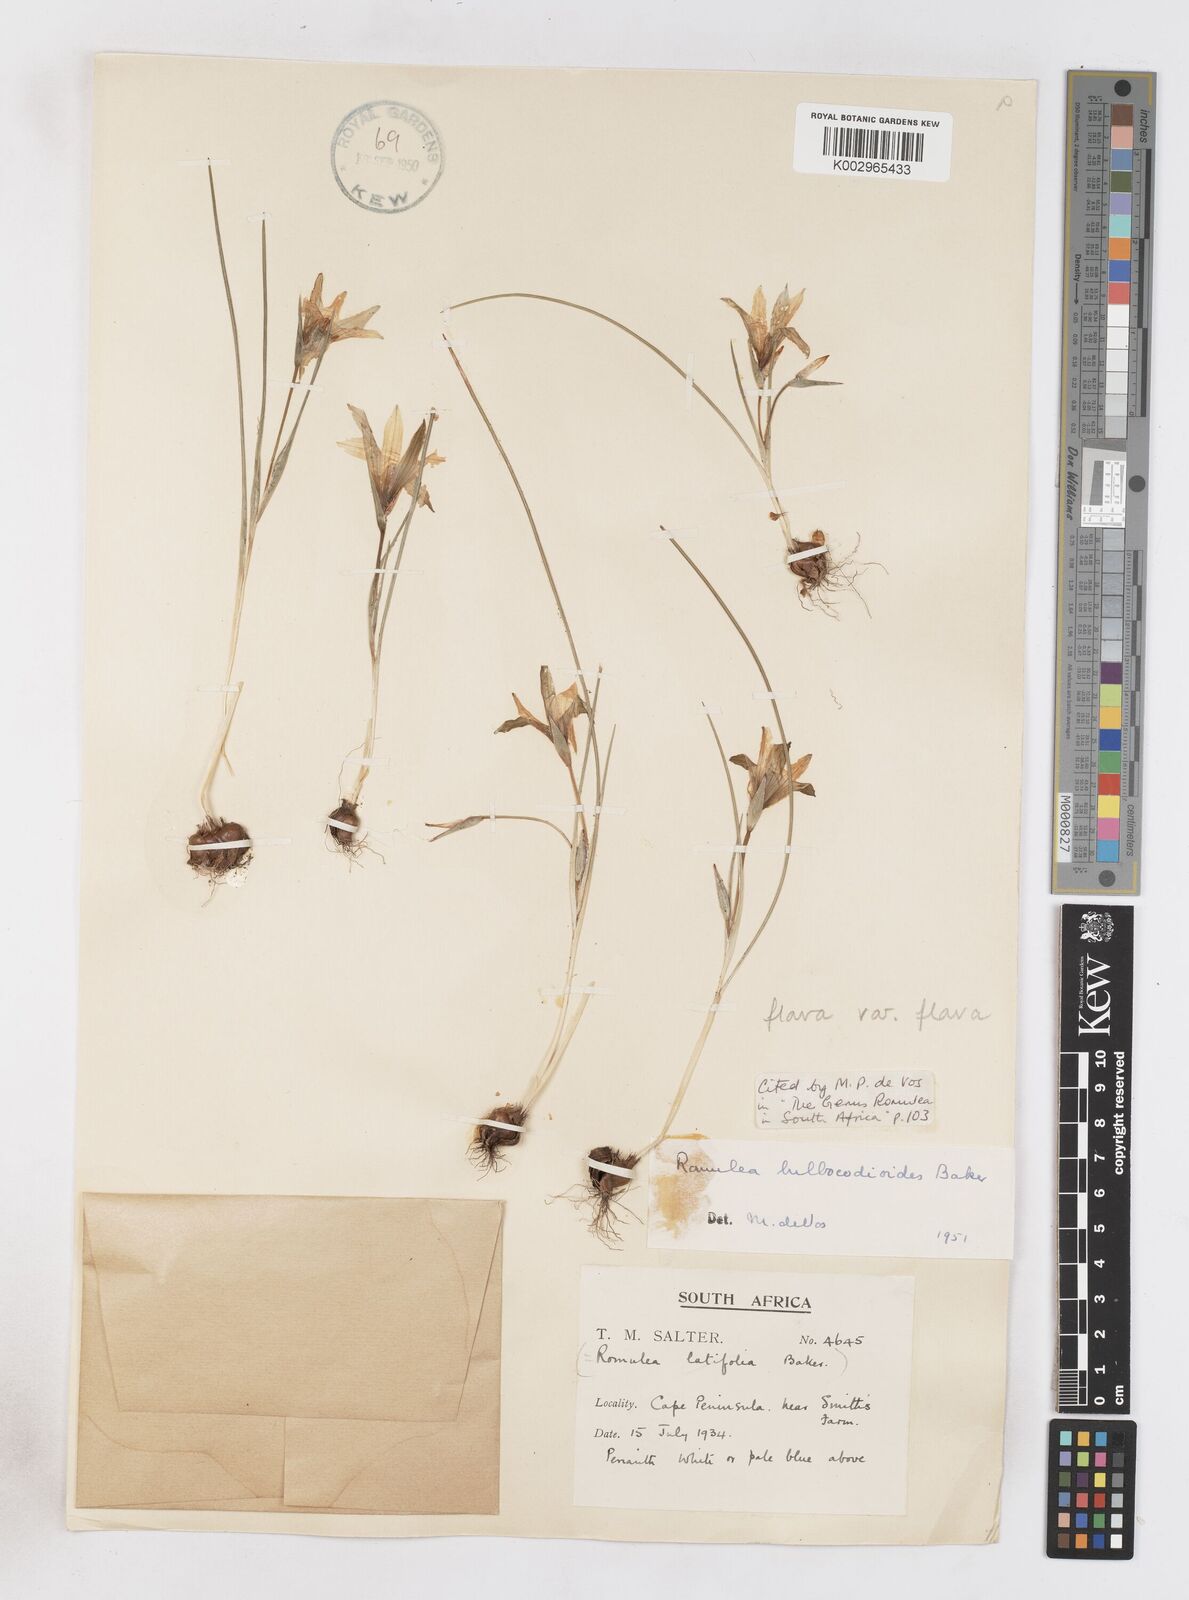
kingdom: Plantae
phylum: Tracheophyta
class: Liliopsida
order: Asparagales
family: Iridaceae
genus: Romulea
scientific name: Romulea flava
